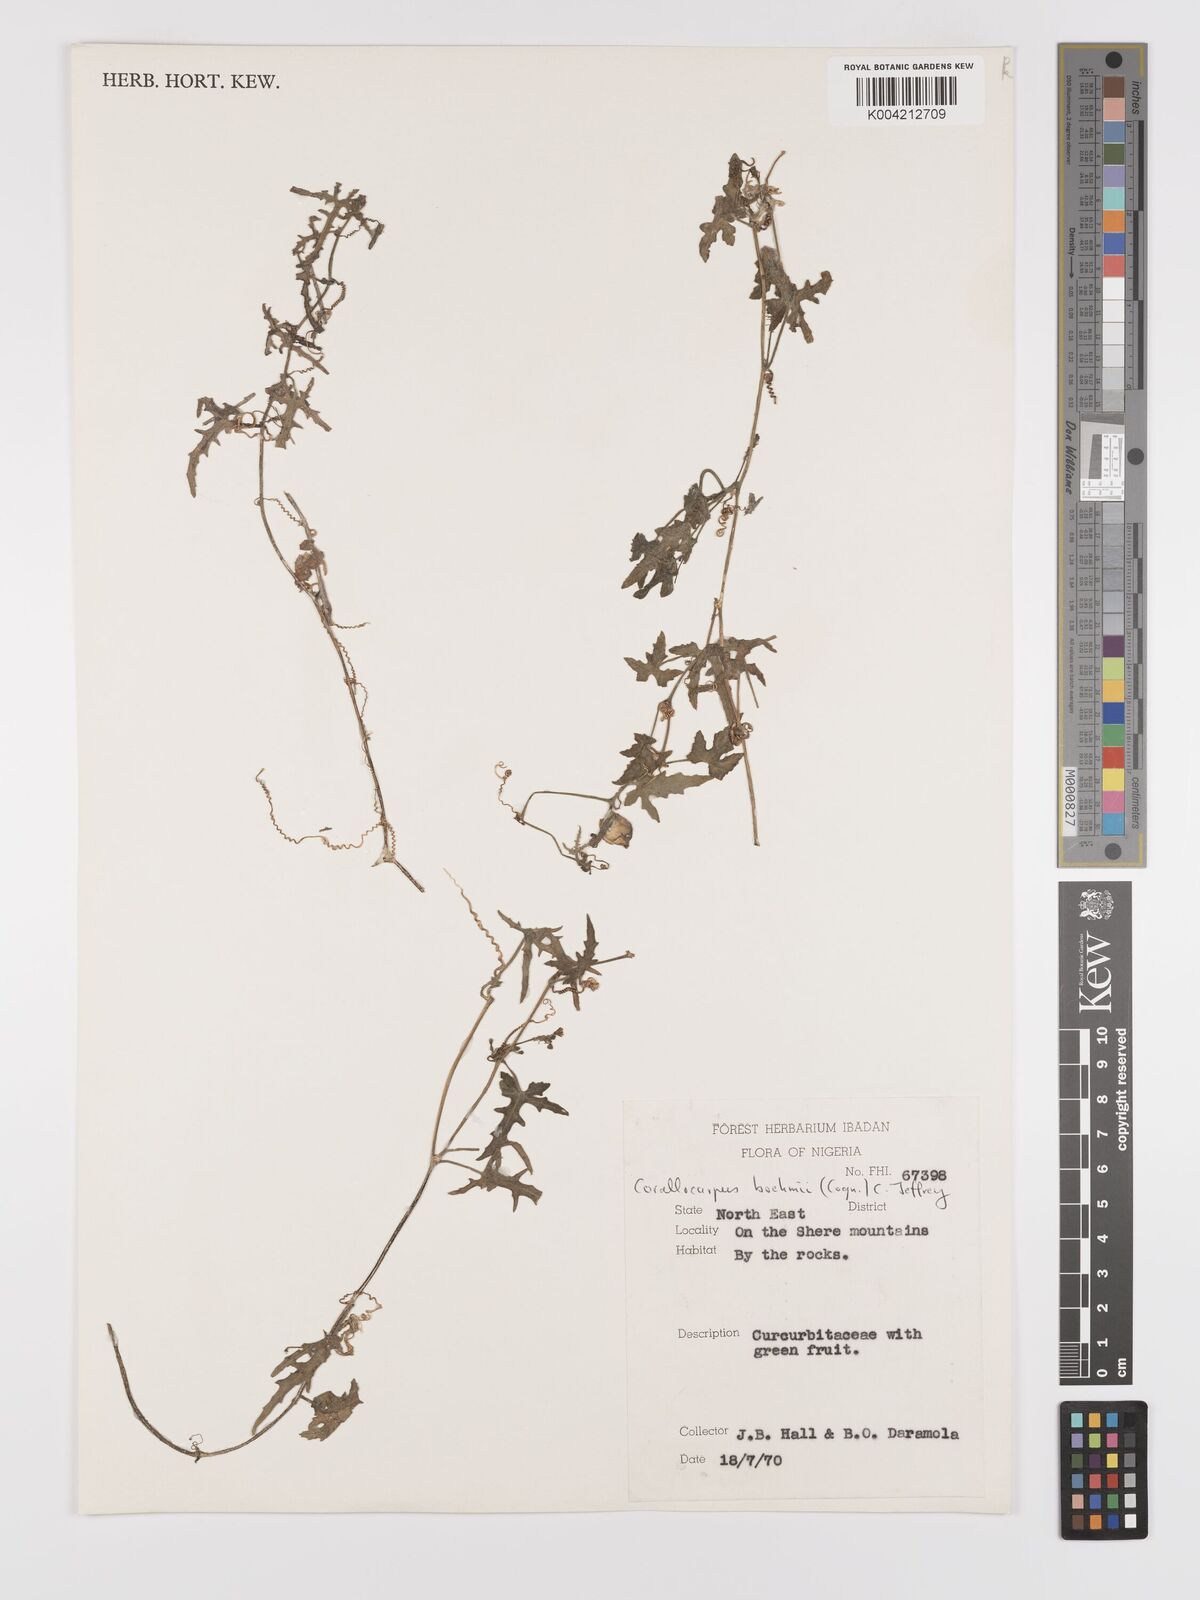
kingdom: Plantae
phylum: Tracheophyta
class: Magnoliopsida
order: Cucurbitales
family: Cucurbitaceae
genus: Corallocarpus
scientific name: Corallocarpus boehmii
